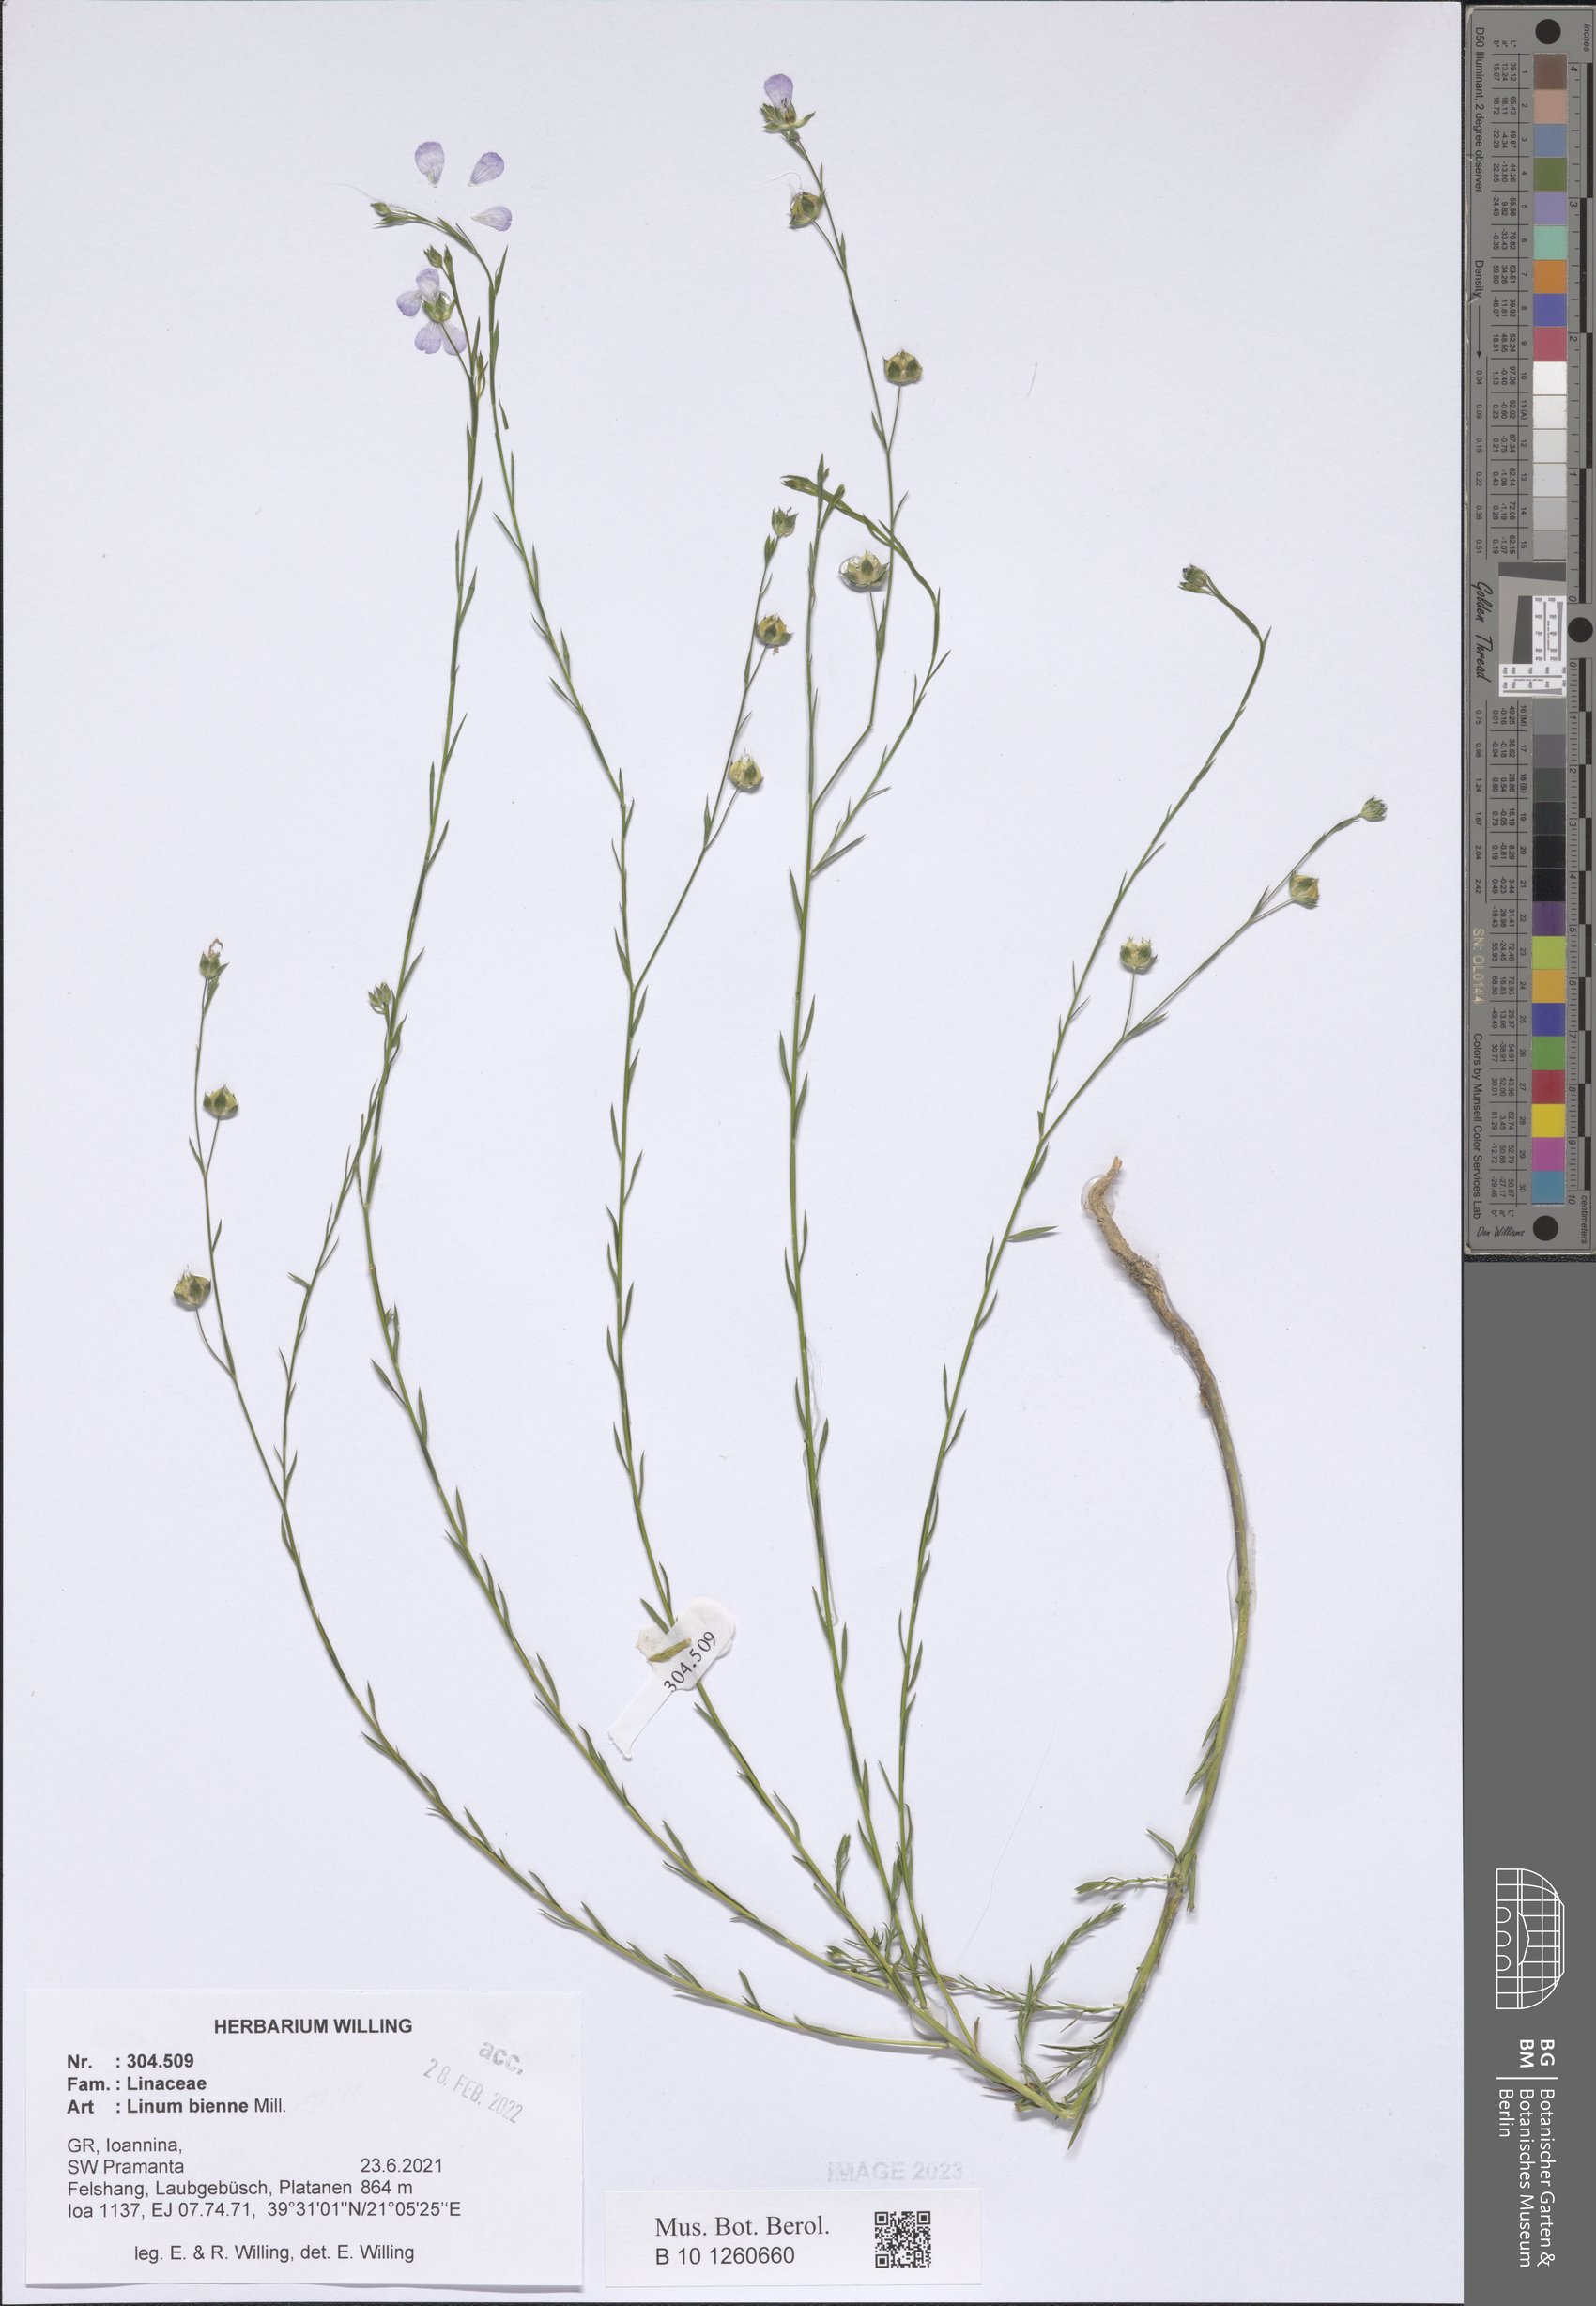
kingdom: Plantae
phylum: Tracheophyta
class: Magnoliopsida
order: Malpighiales
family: Linaceae
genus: Linum
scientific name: Linum bienne
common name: Pale flax
